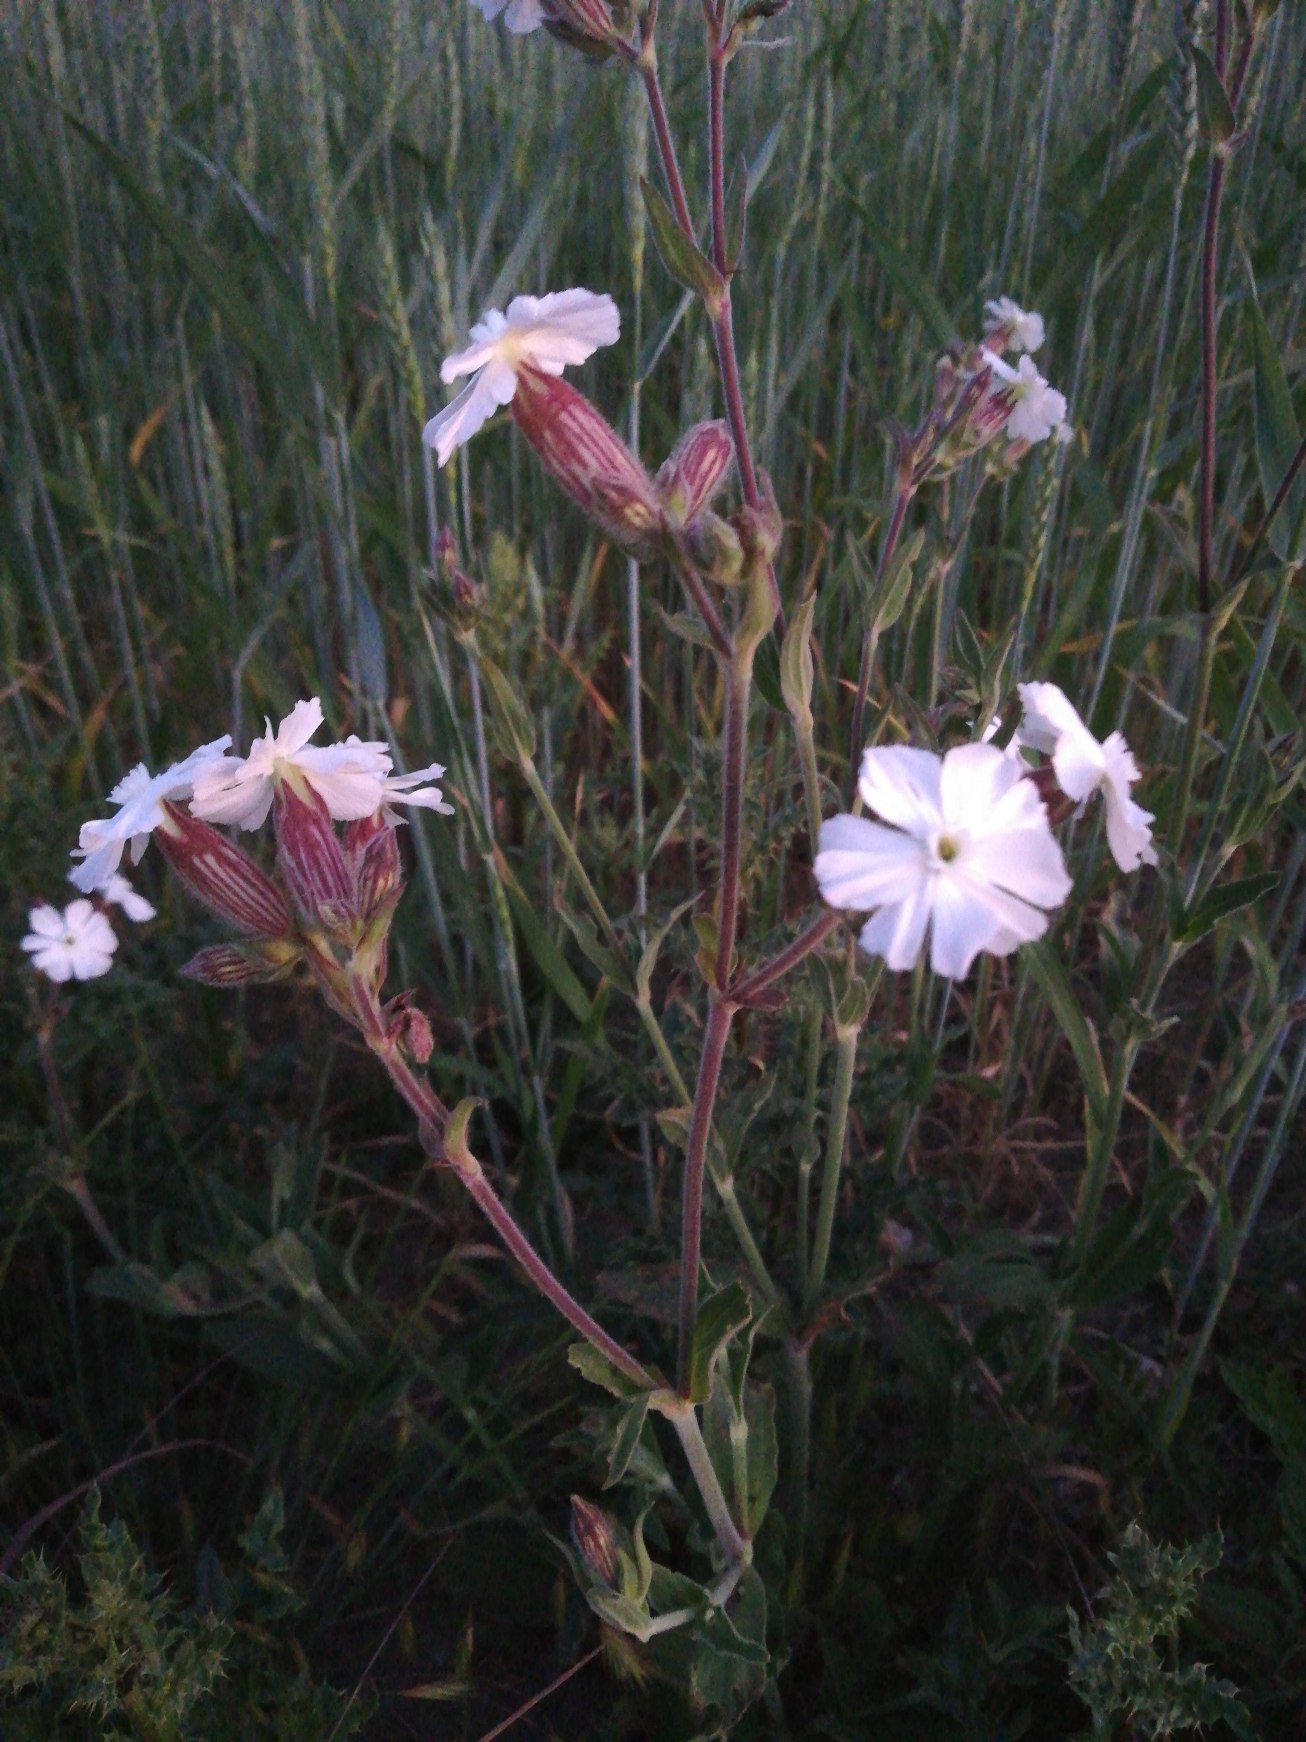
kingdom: Plantae
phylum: Tracheophyta
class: Magnoliopsida
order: Caryophyllales
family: Caryophyllaceae
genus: Silene
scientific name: Silene latifolia
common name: Aftenpragtstjerne
